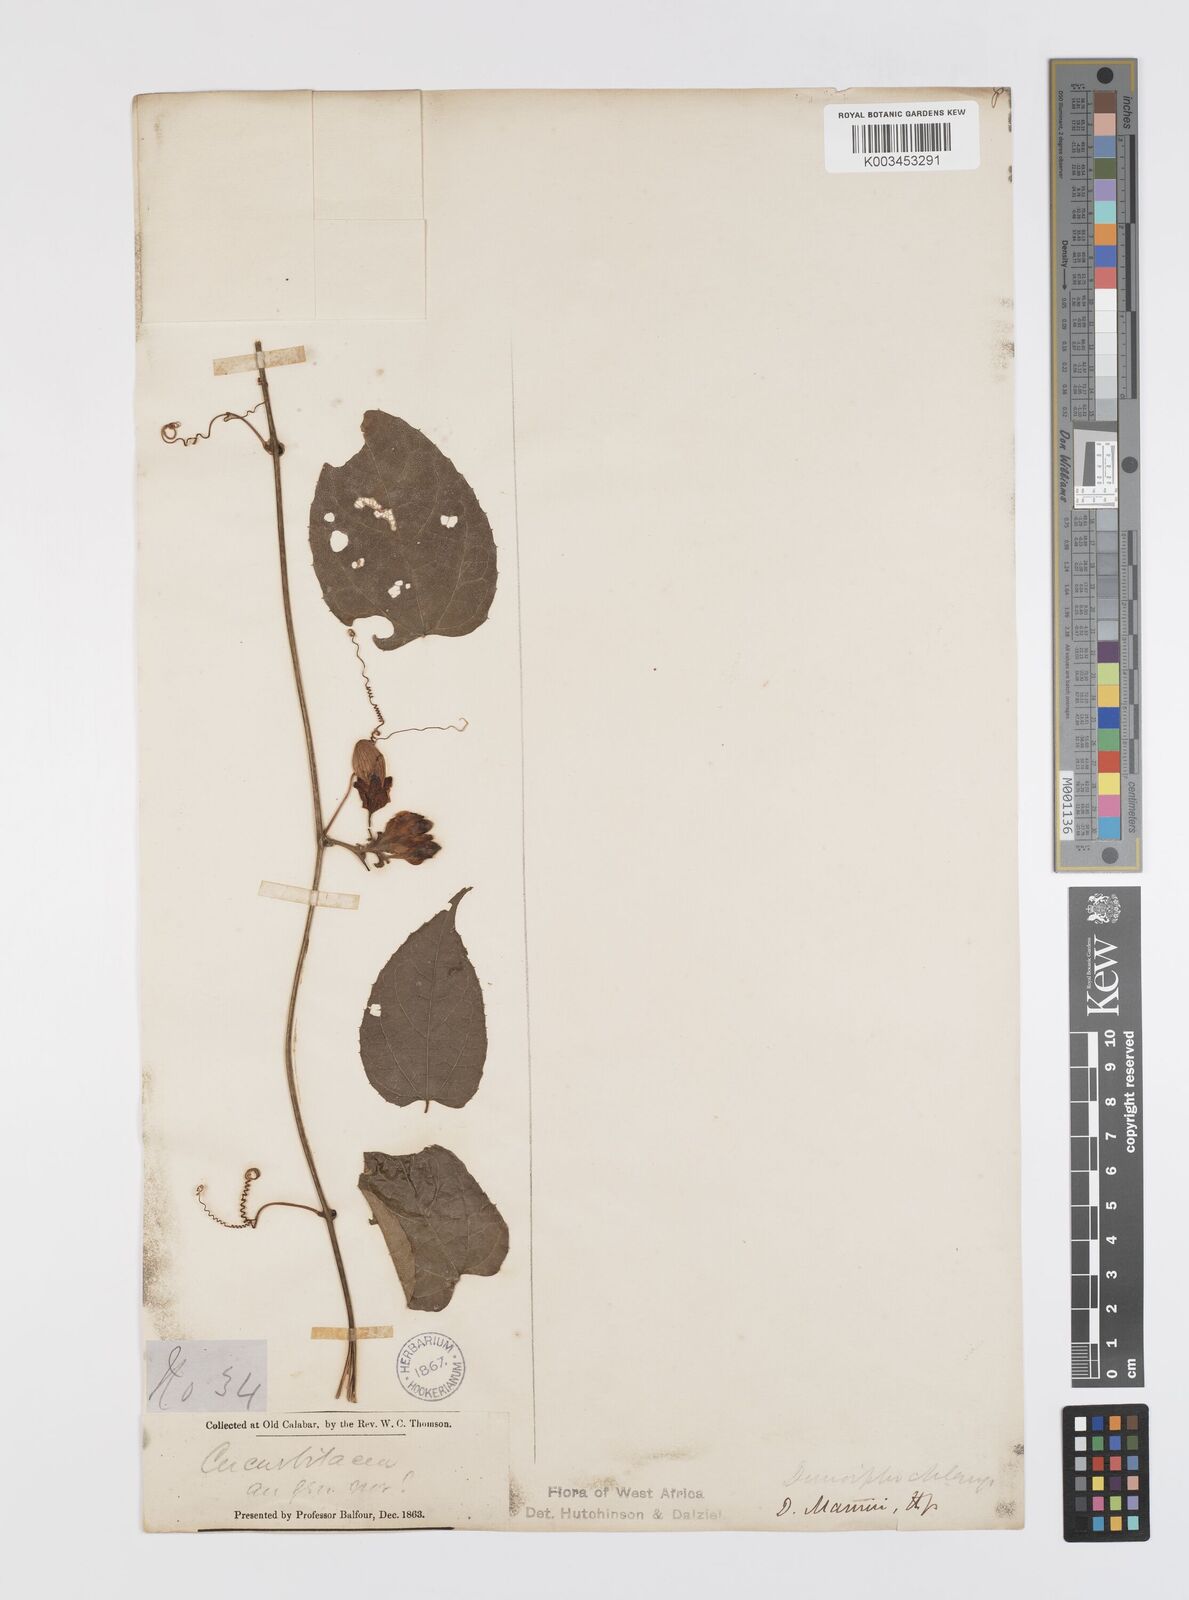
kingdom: Plantae
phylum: Tracheophyta
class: Magnoliopsida
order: Cucurbitales
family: Cucurbitaceae
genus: Momordica
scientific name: Momordica cabrae
